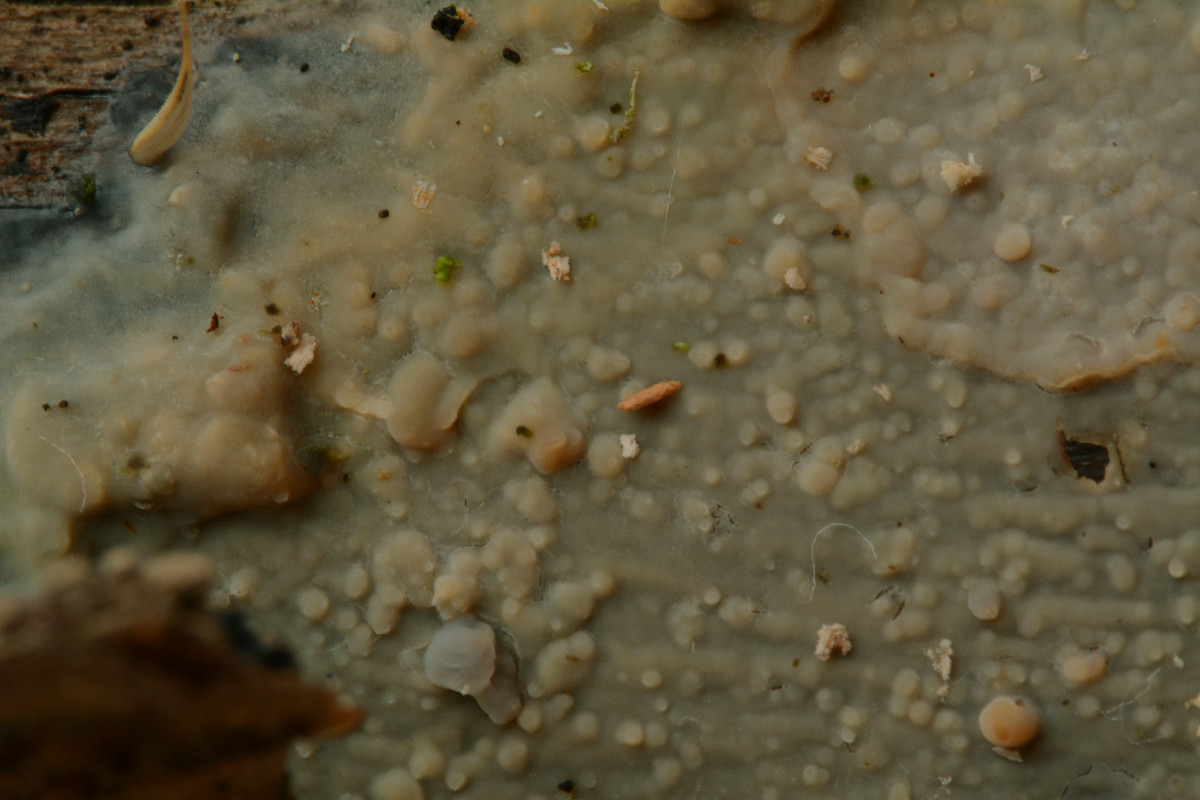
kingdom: Fungi
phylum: Basidiomycota
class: Agaricomycetes
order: Polyporales
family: Meruliaceae
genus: Cytidiella
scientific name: Cytidiella albida
